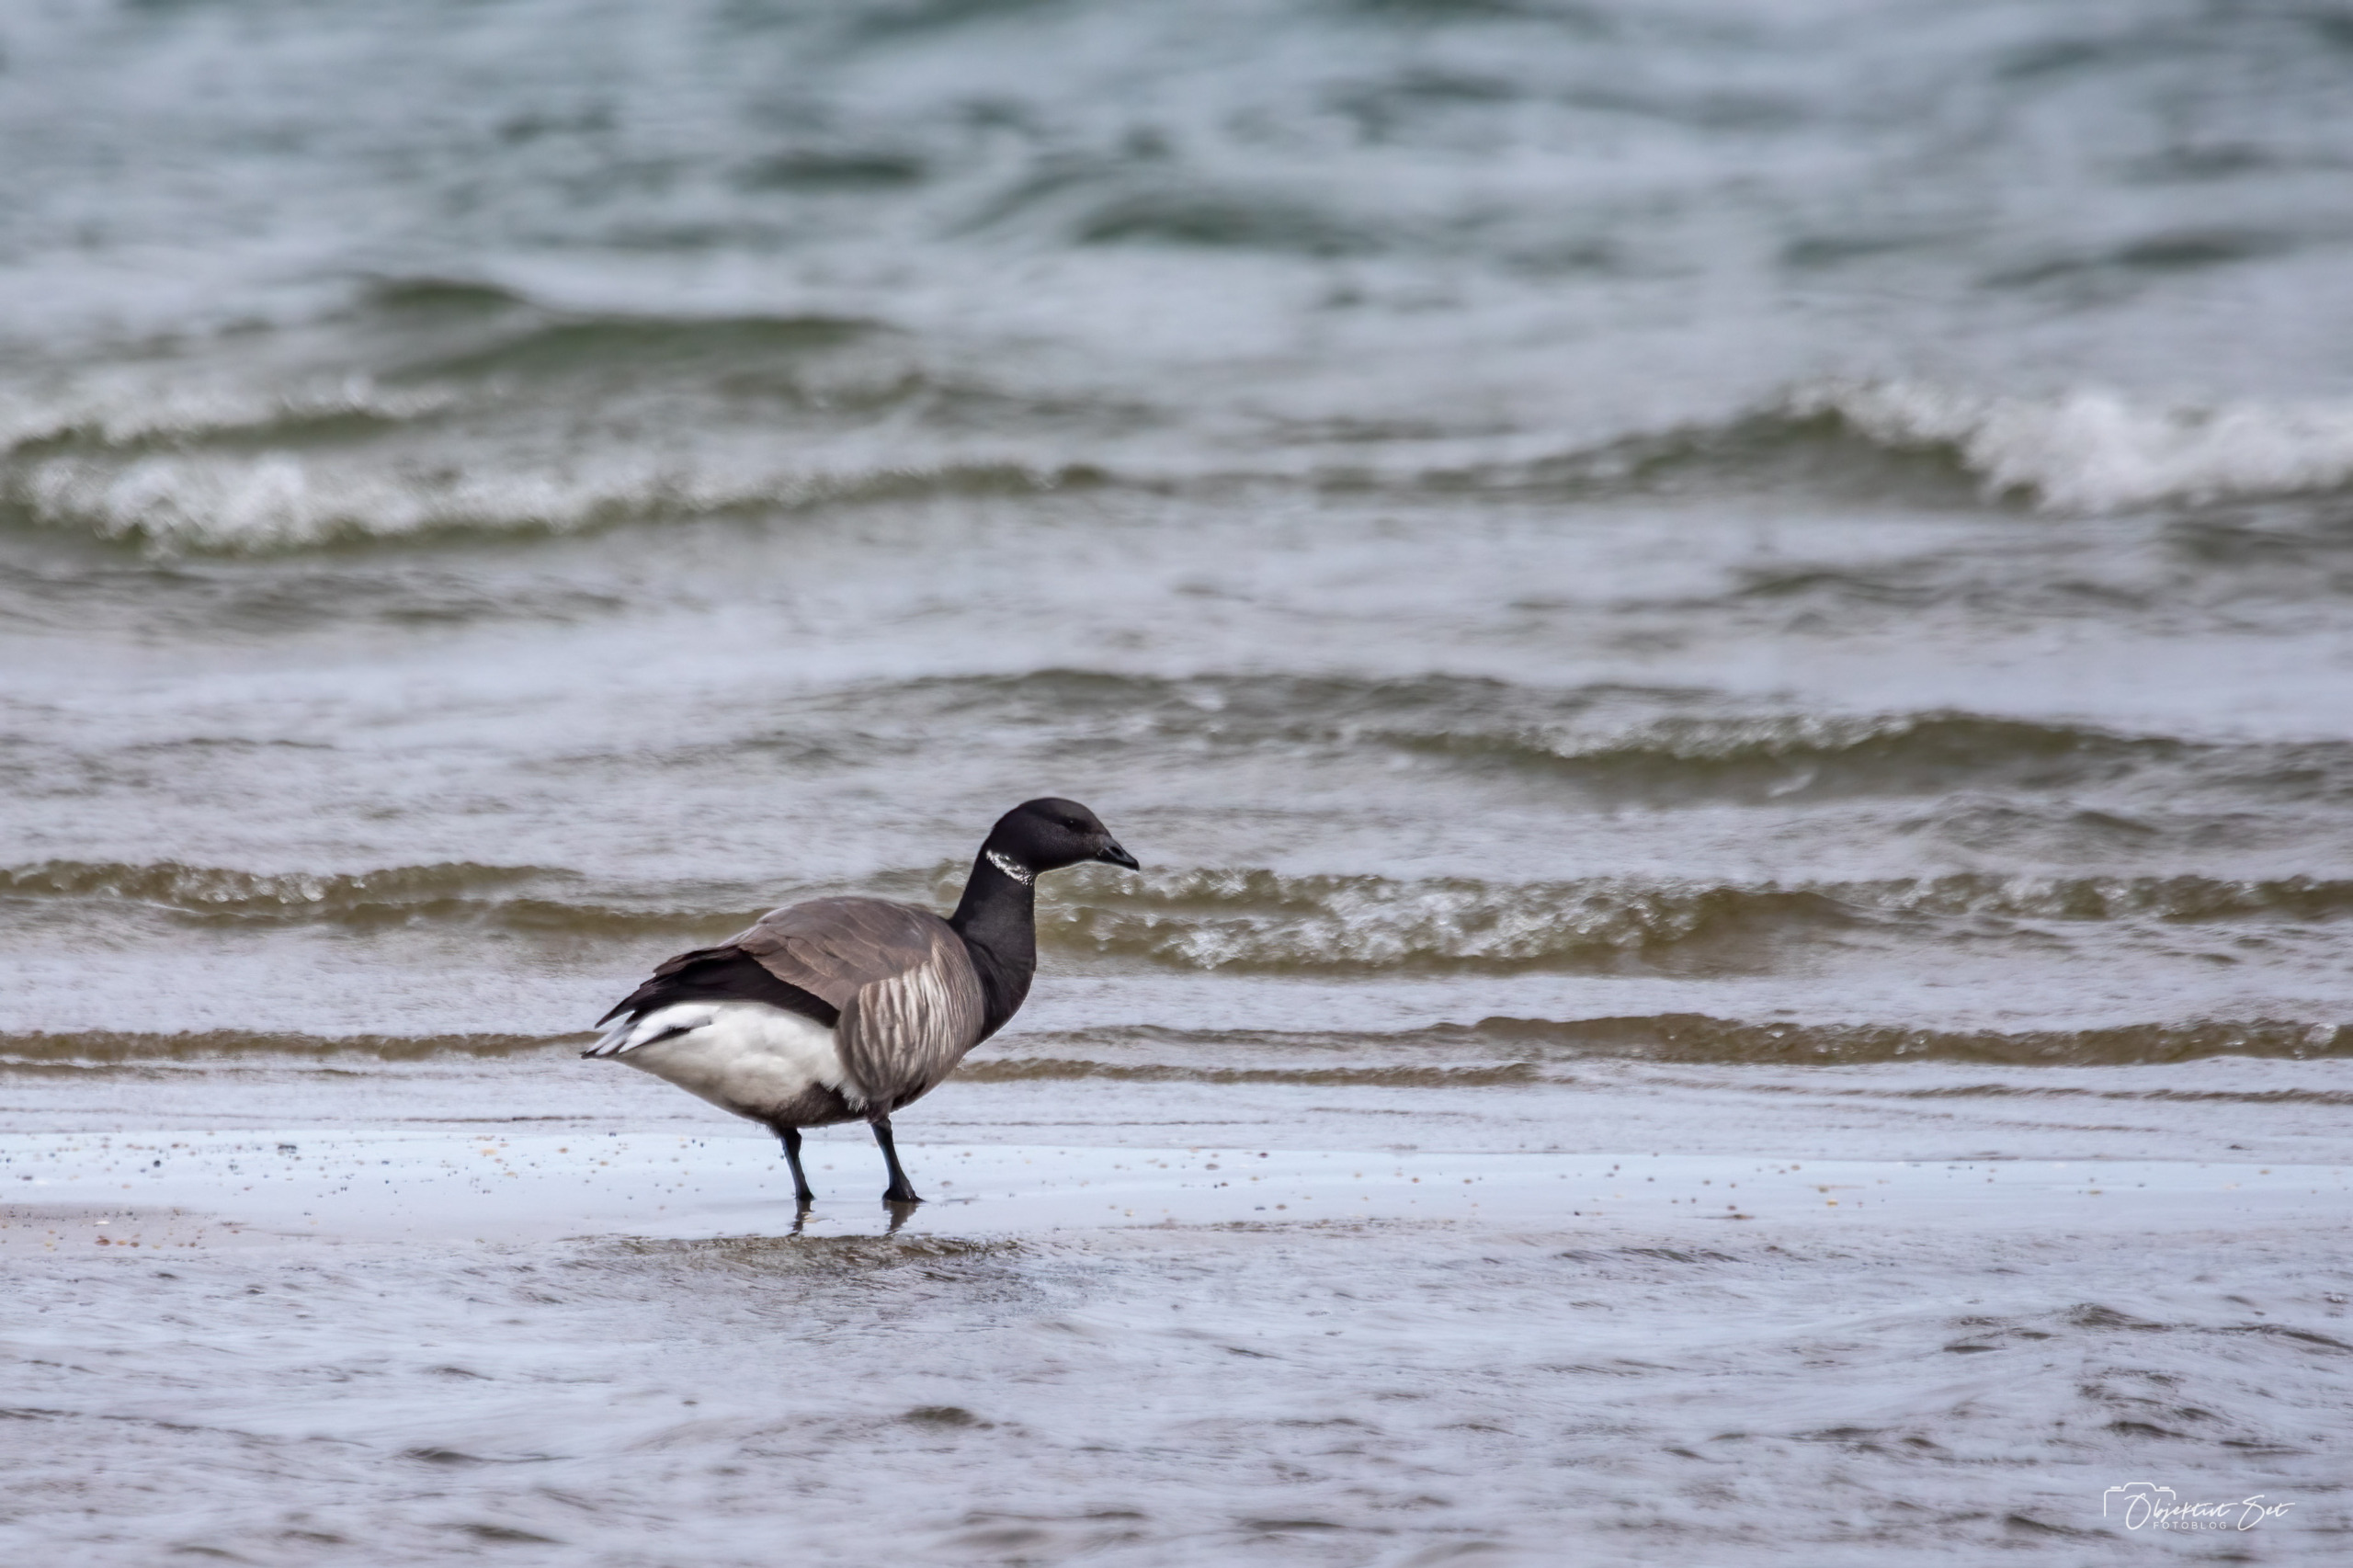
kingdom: Animalia
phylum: Chordata
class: Aves
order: Anseriformes
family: Anatidae
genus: Branta
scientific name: Branta bernicla
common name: Knortegås
